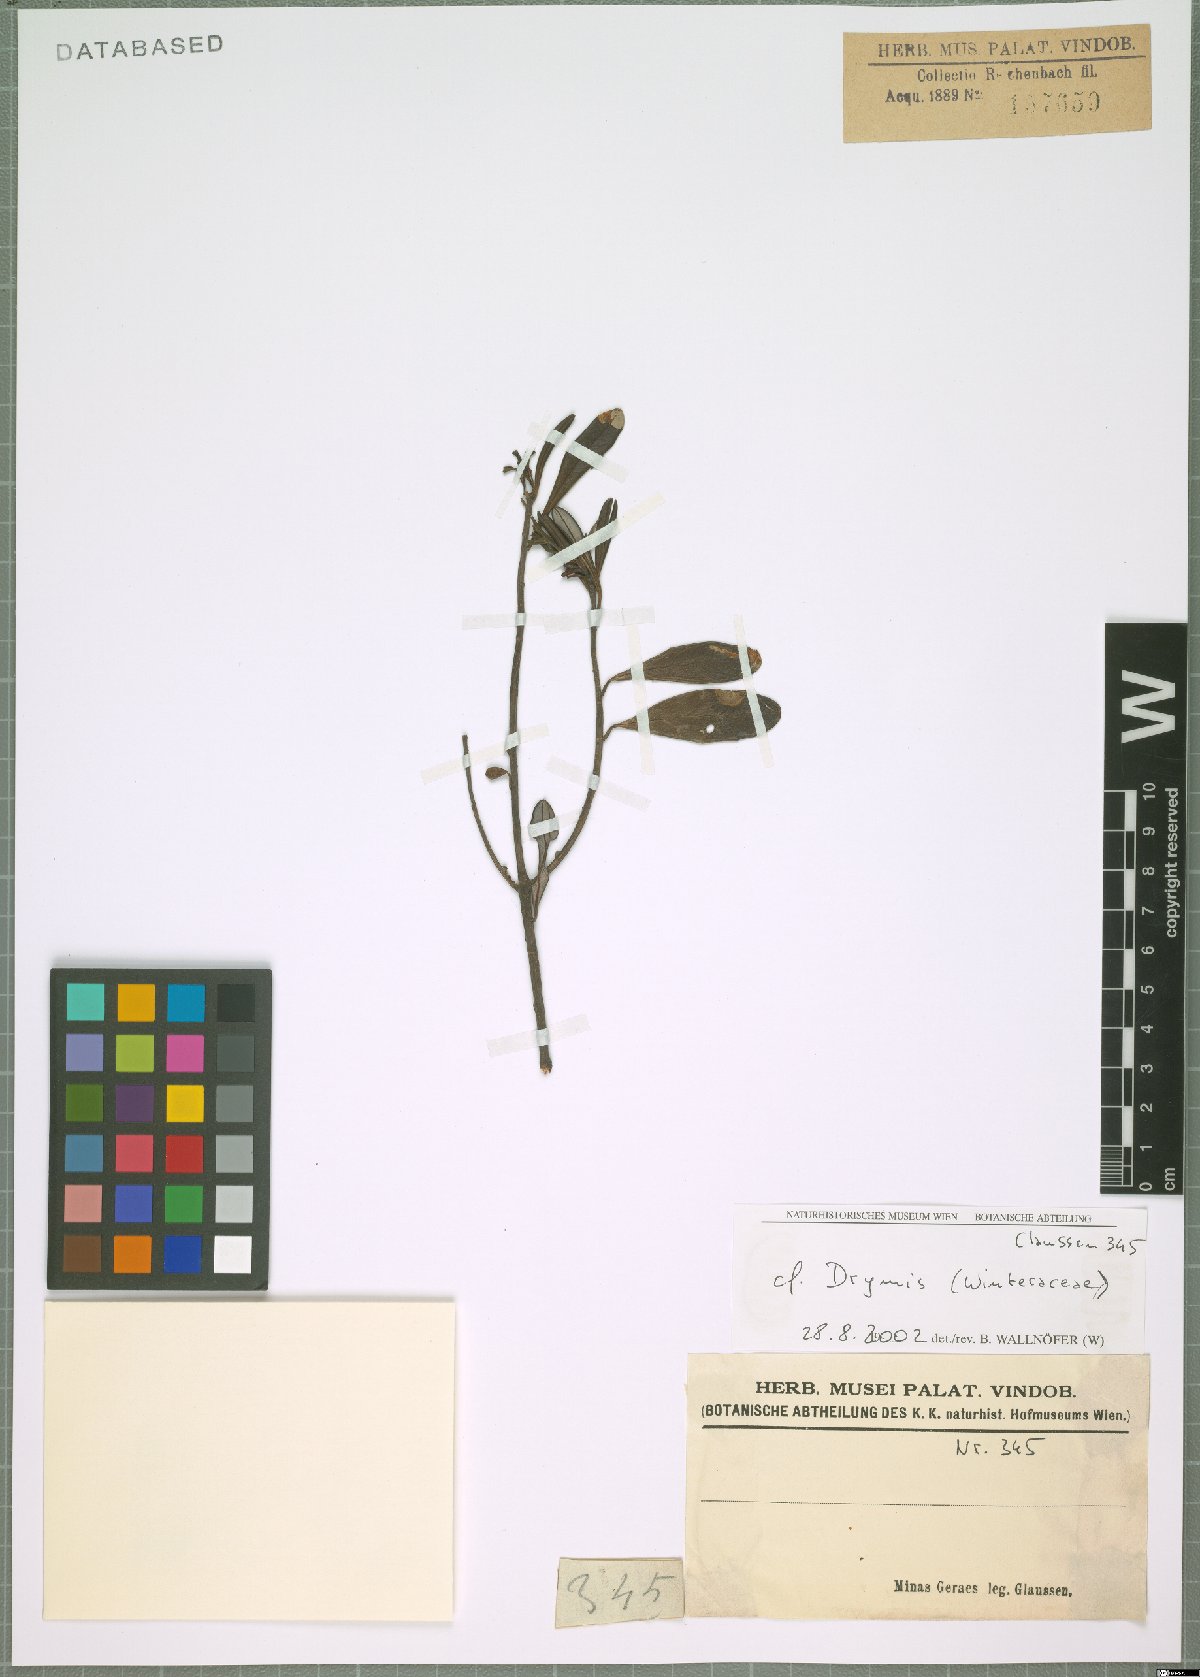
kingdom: Plantae
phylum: Tracheophyta
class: Magnoliopsida
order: Canellales
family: Winteraceae
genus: Drimys
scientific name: Drimys
